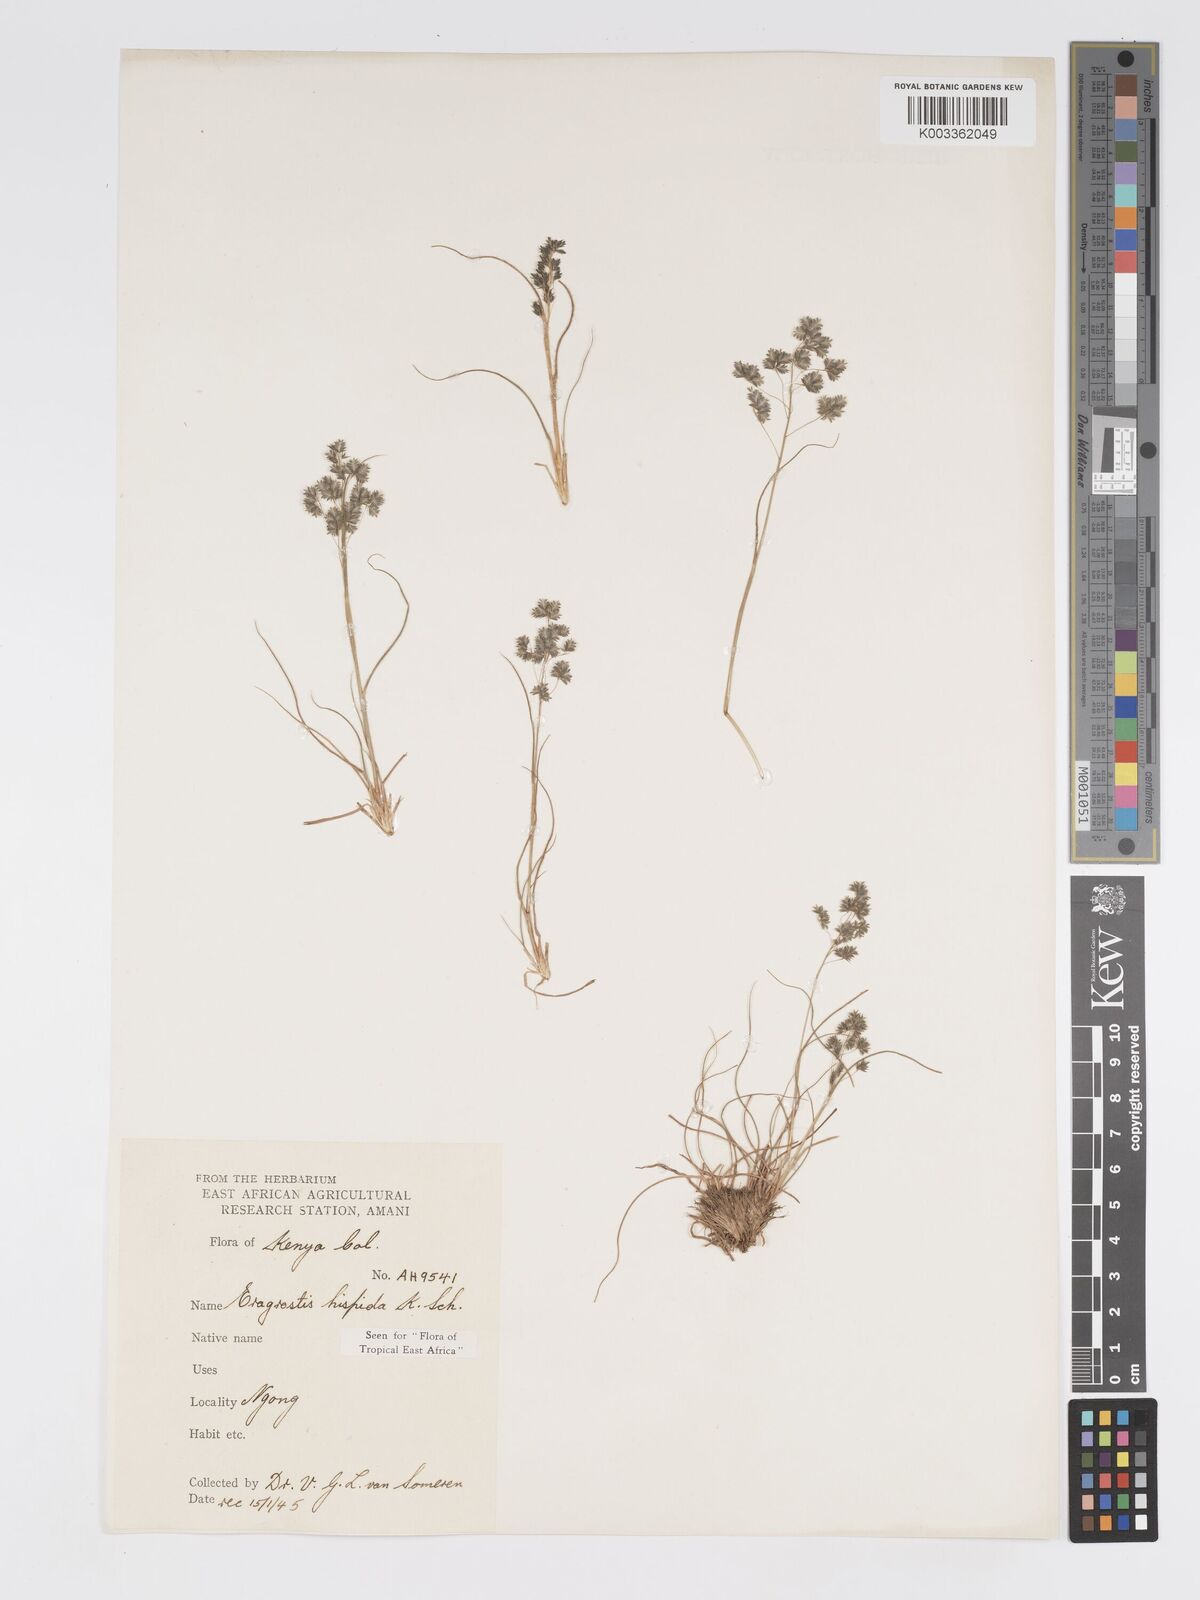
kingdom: Plantae
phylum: Tracheophyta
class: Liliopsida
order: Poales
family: Poaceae
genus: Eragrostis
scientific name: Eragrostis hispida
